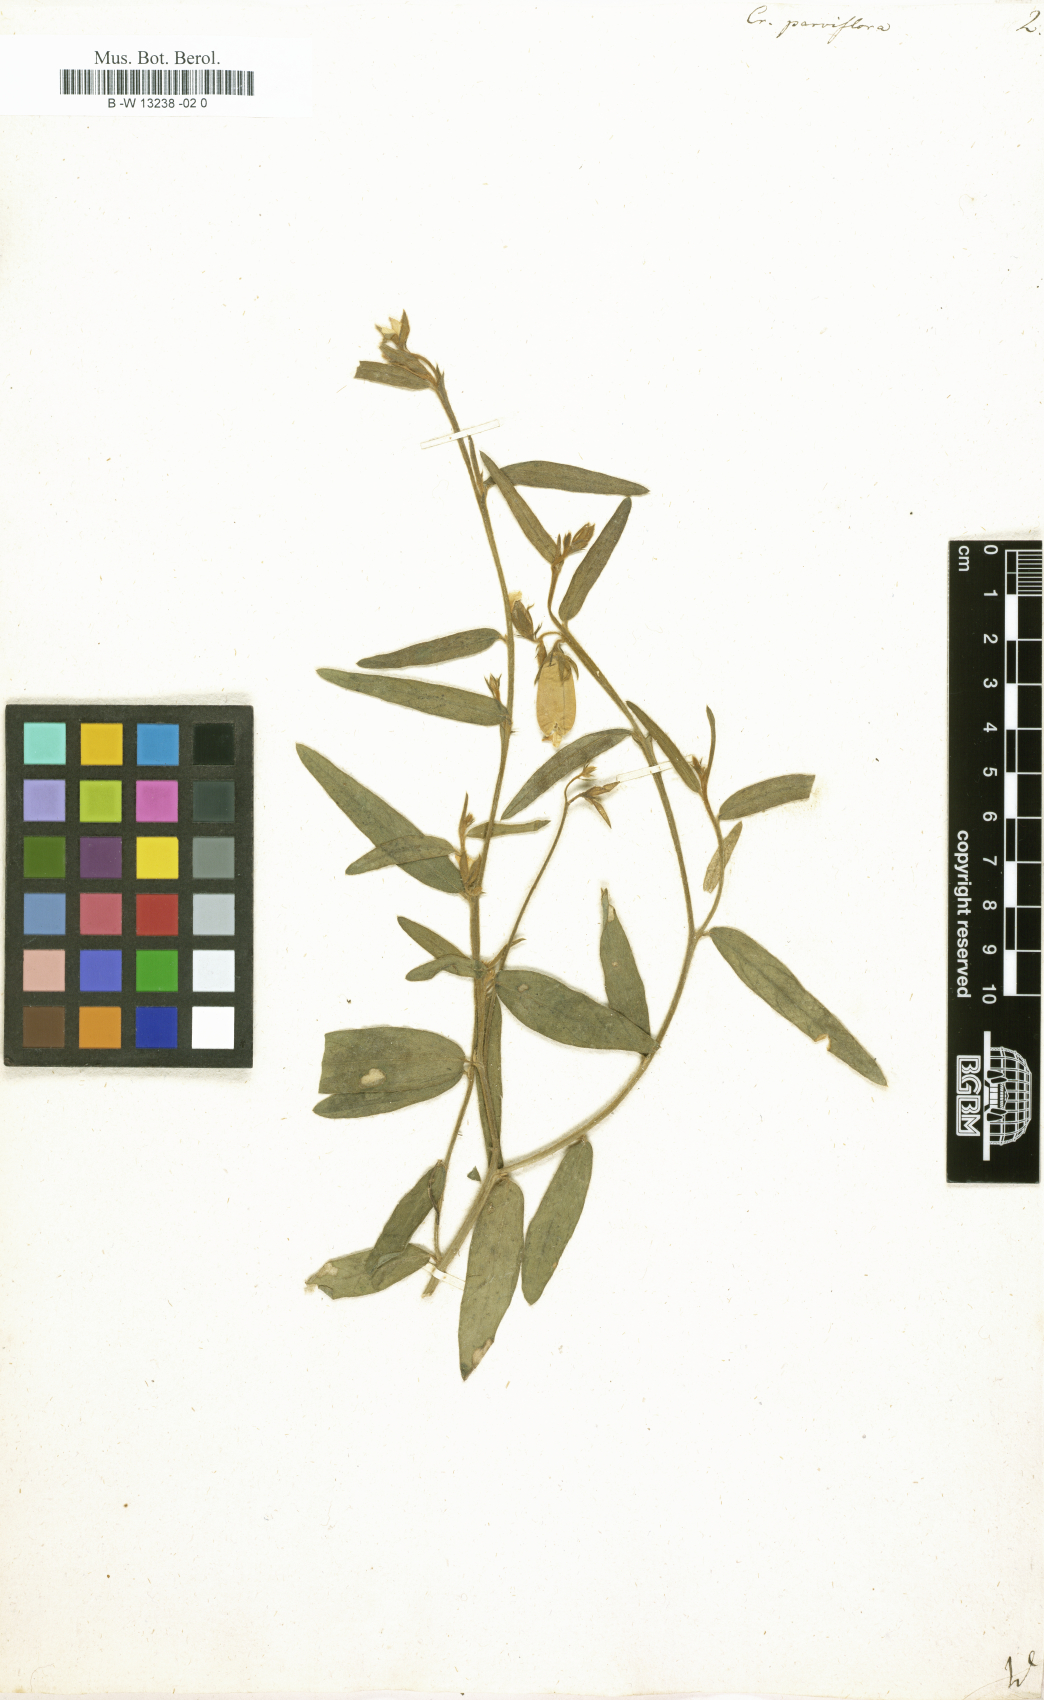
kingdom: Plantae
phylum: Tracheophyta
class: Magnoliopsida
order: Fabales
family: Fabaceae
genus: Crotalaria
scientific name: Crotalaria
